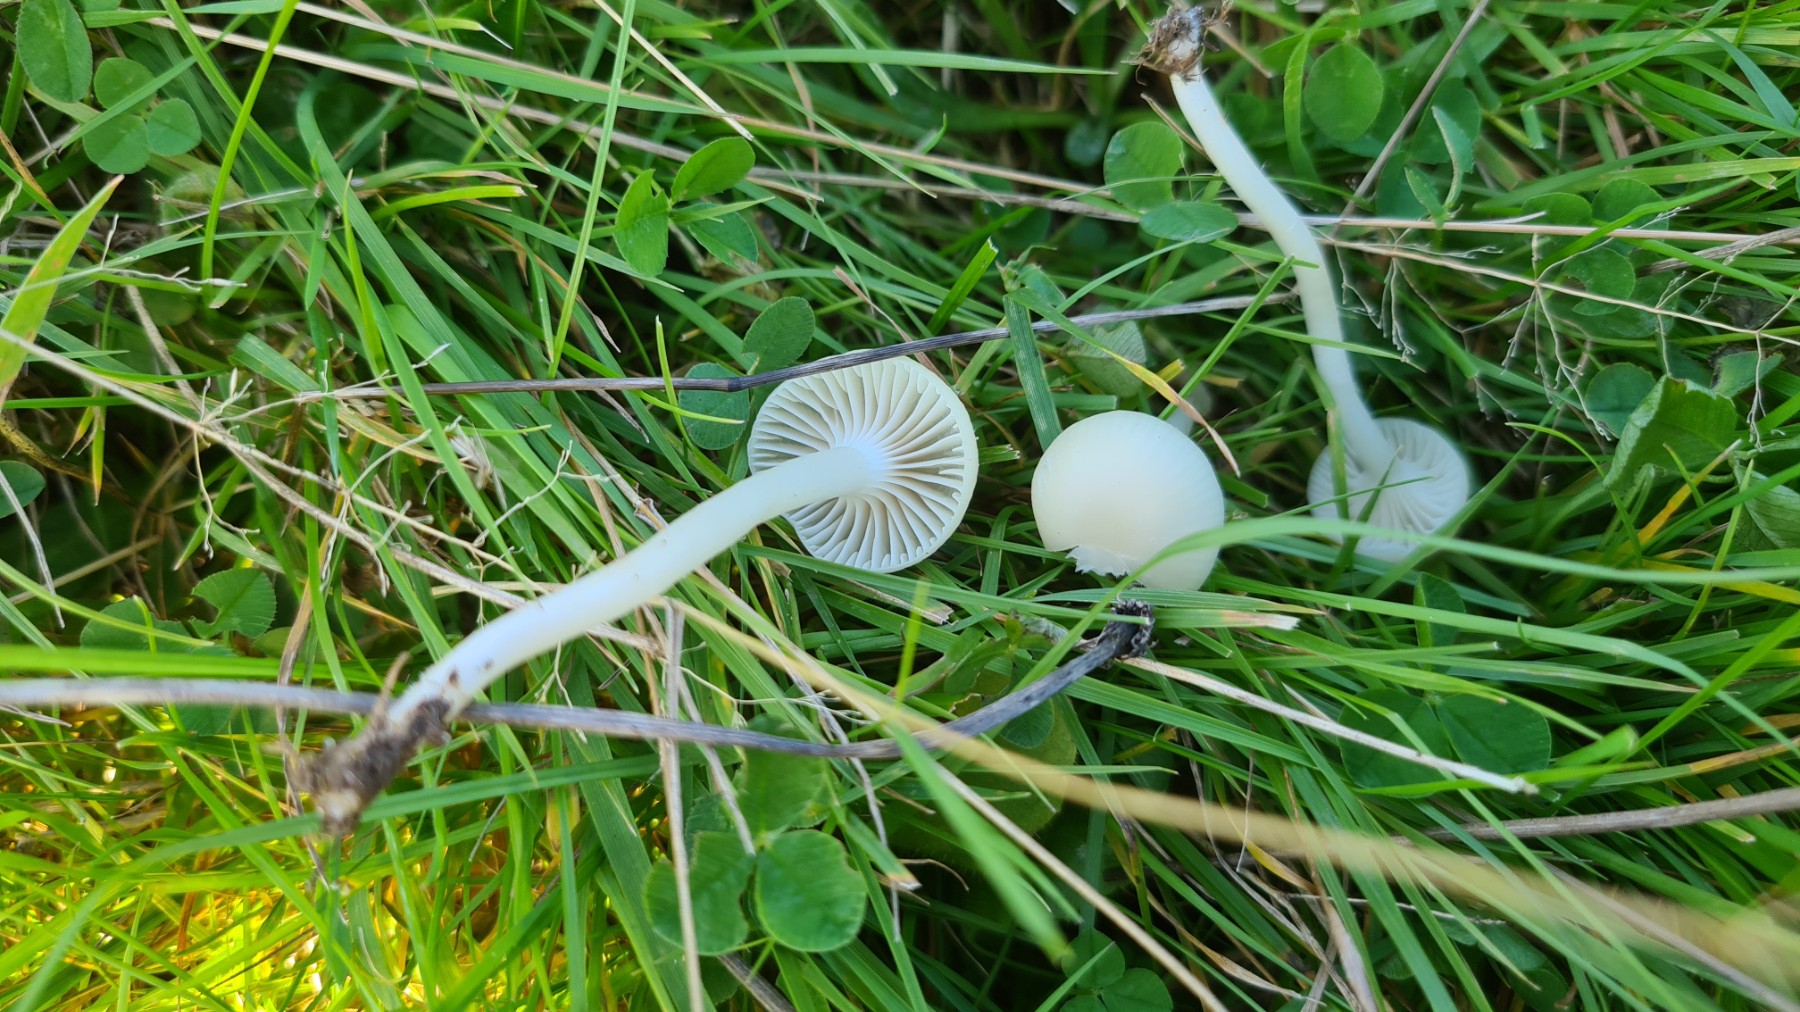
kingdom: Fungi
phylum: Basidiomycota
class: Agaricomycetes
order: Agaricales
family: Hygrophoraceae
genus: Cuphophyllus
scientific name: Cuphophyllus virgineus
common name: snehvid vokshat
